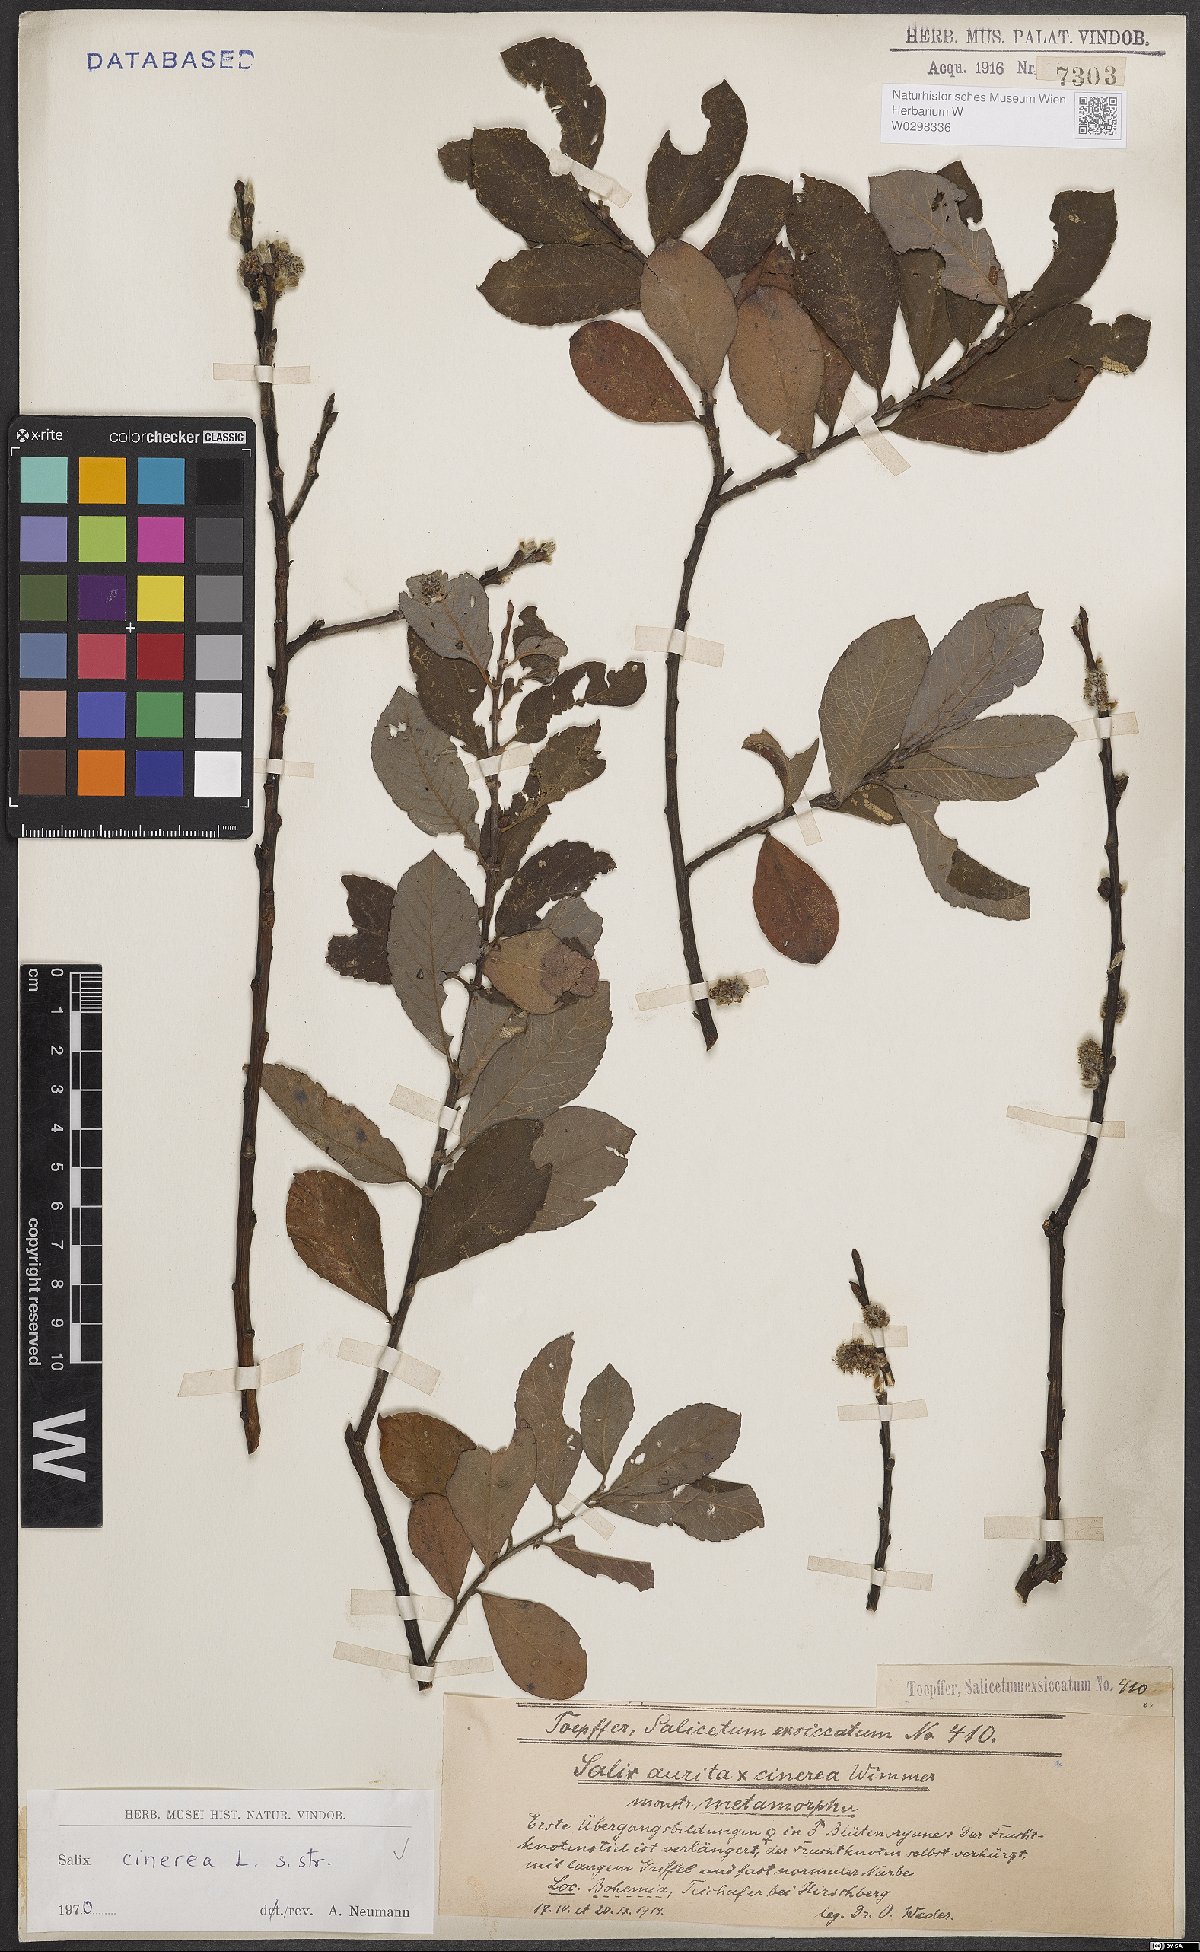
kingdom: Plantae
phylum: Tracheophyta
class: Magnoliopsida
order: Malpighiales
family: Salicaceae
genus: Salix
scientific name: Salix cinerea
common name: Common sallow
